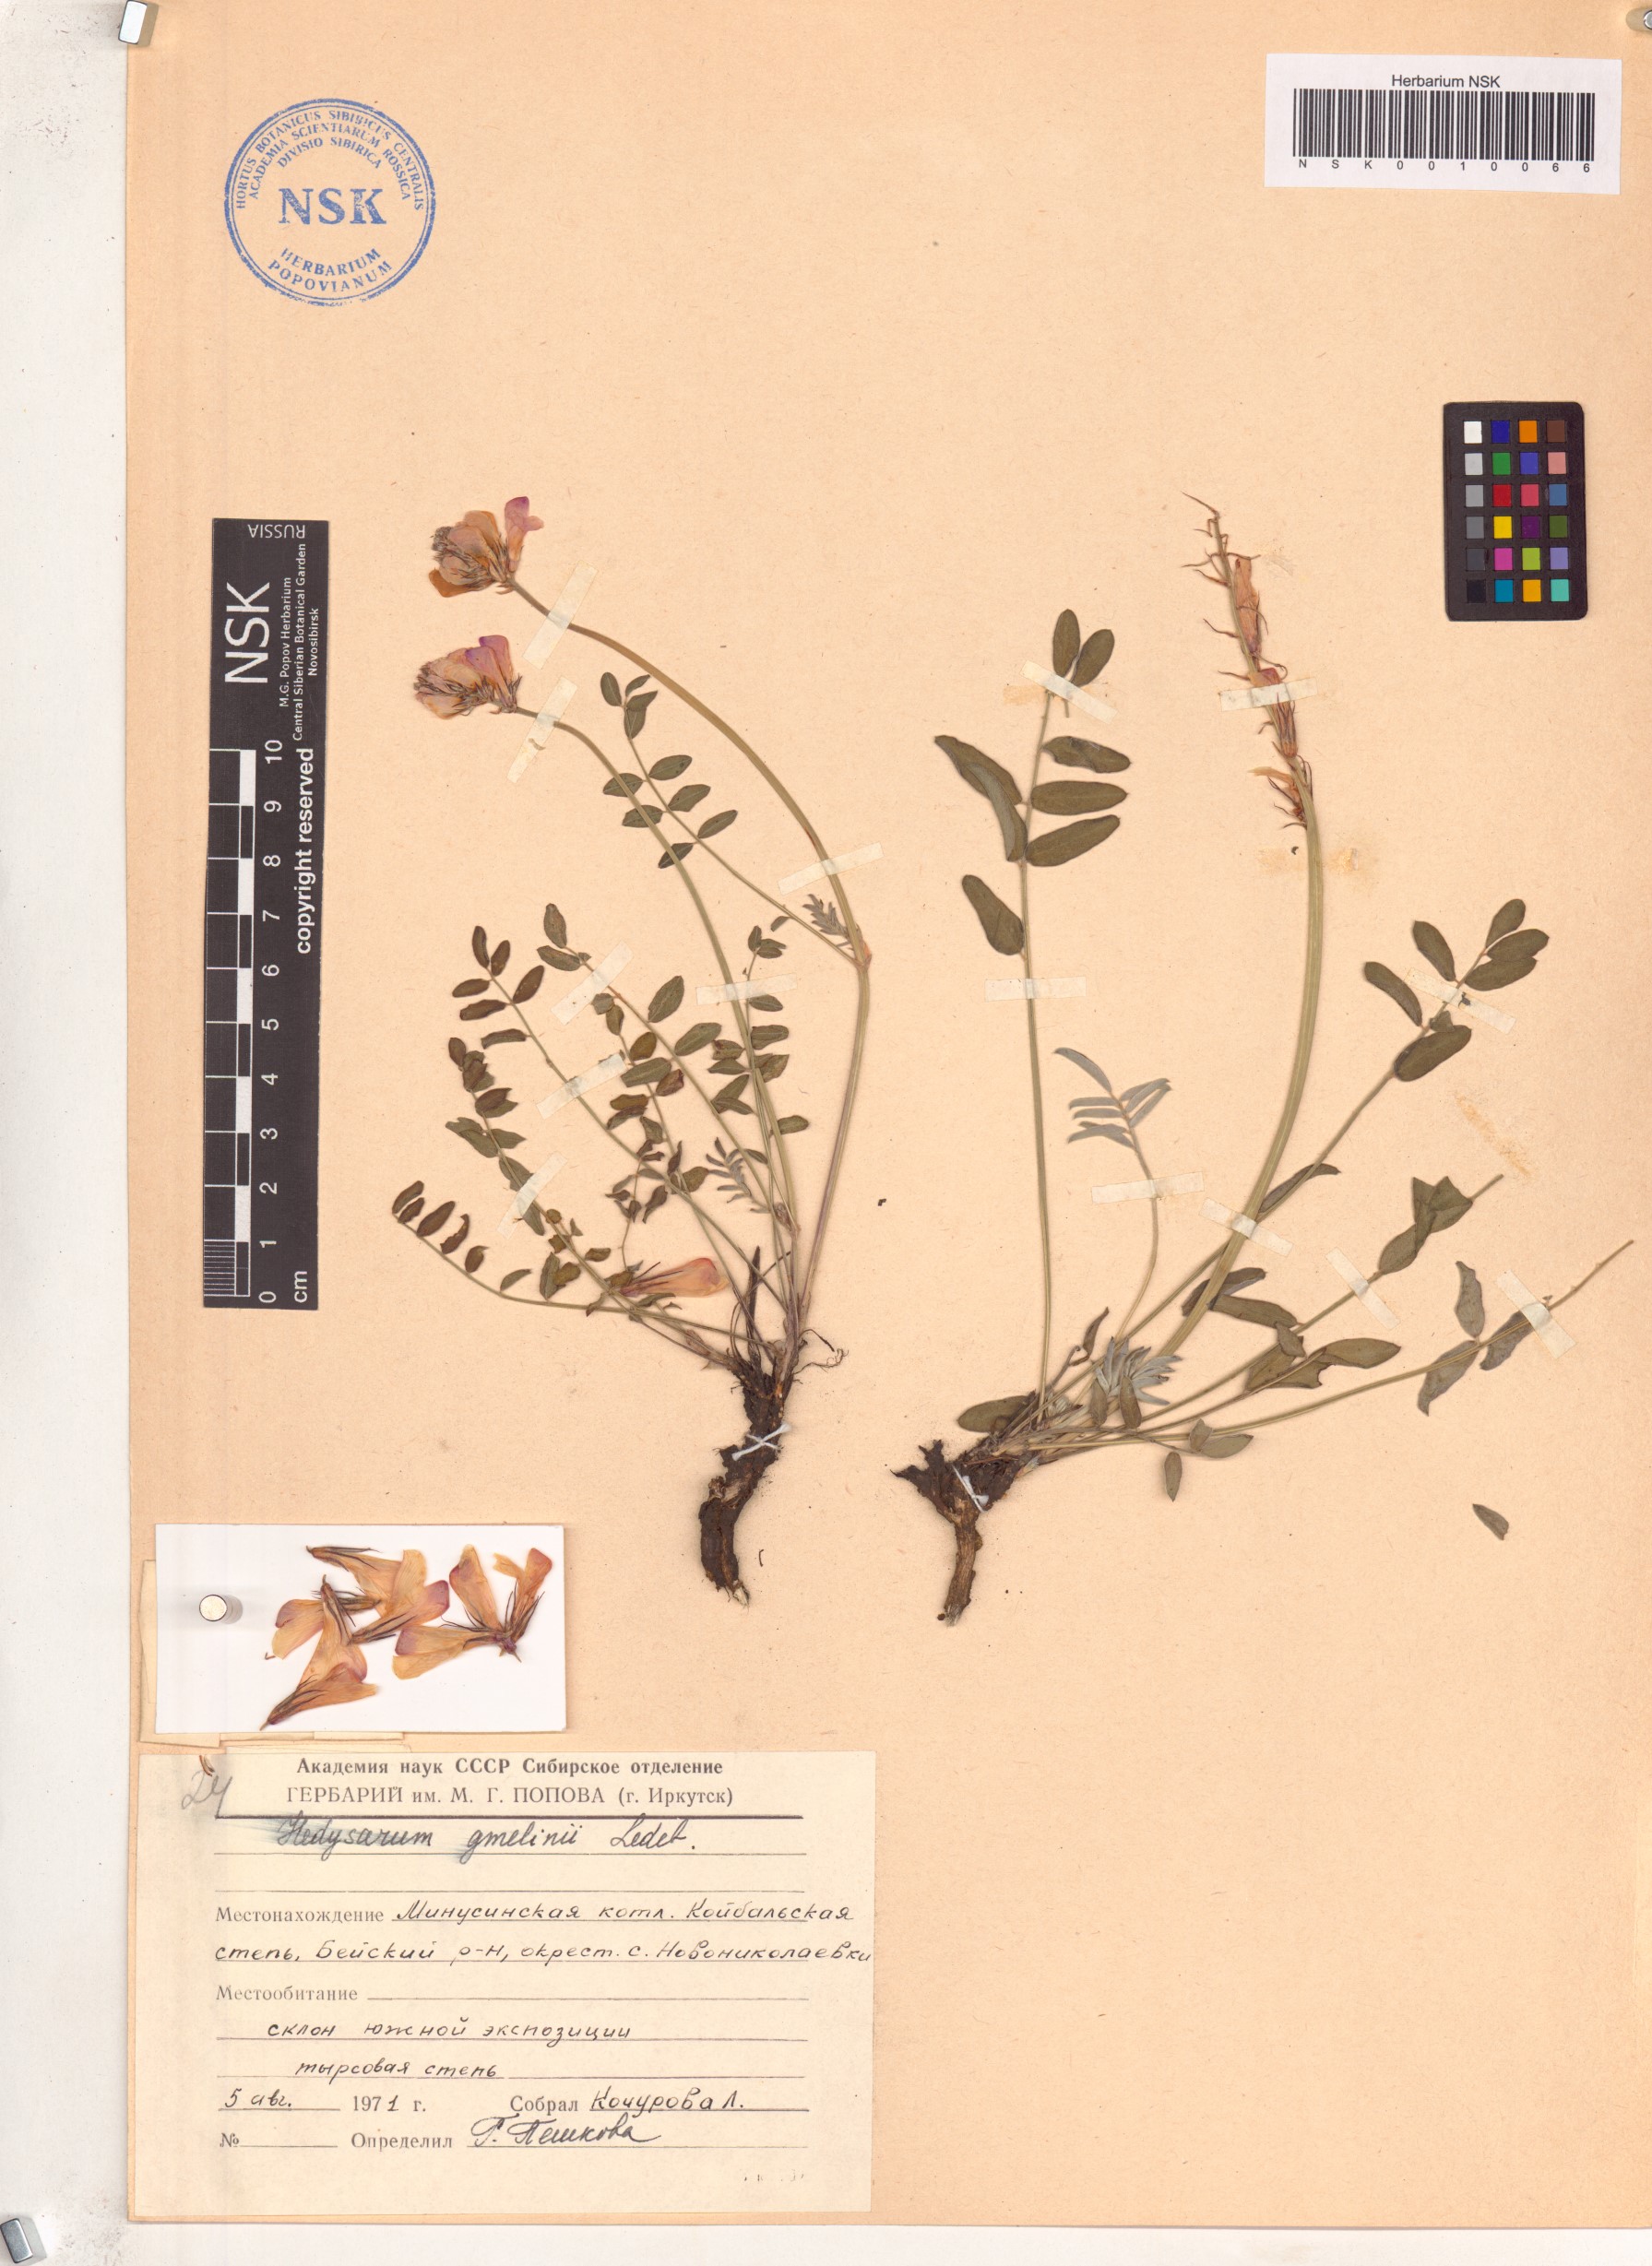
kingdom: Plantae
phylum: Tracheophyta
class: Magnoliopsida
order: Fabales
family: Fabaceae
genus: Hedysarum
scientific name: Hedysarum gmelinii
